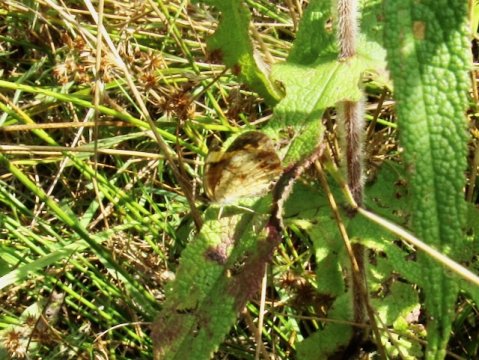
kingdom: Animalia
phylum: Arthropoda
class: Insecta
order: Lepidoptera
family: Nymphalidae
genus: Phyciodes
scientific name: Phyciodes tharos
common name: Pearl Crescent
